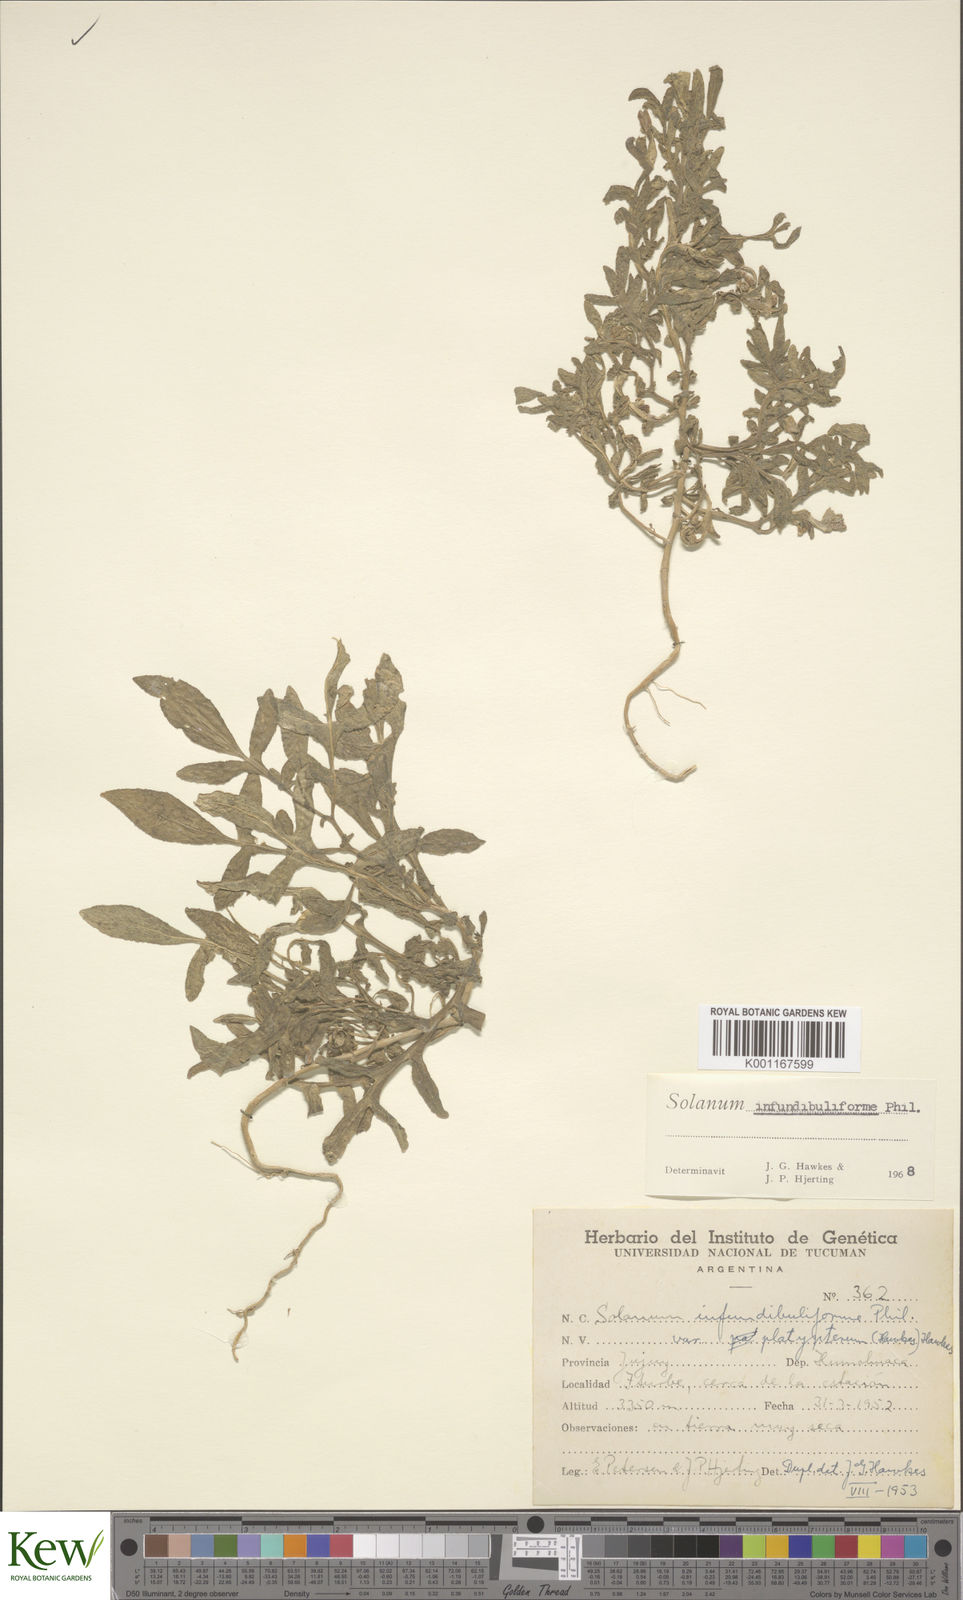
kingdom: Plantae
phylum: Tracheophyta
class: Magnoliopsida
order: Solanales
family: Solanaceae
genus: Solanum
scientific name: Solanum infundibuliforme
